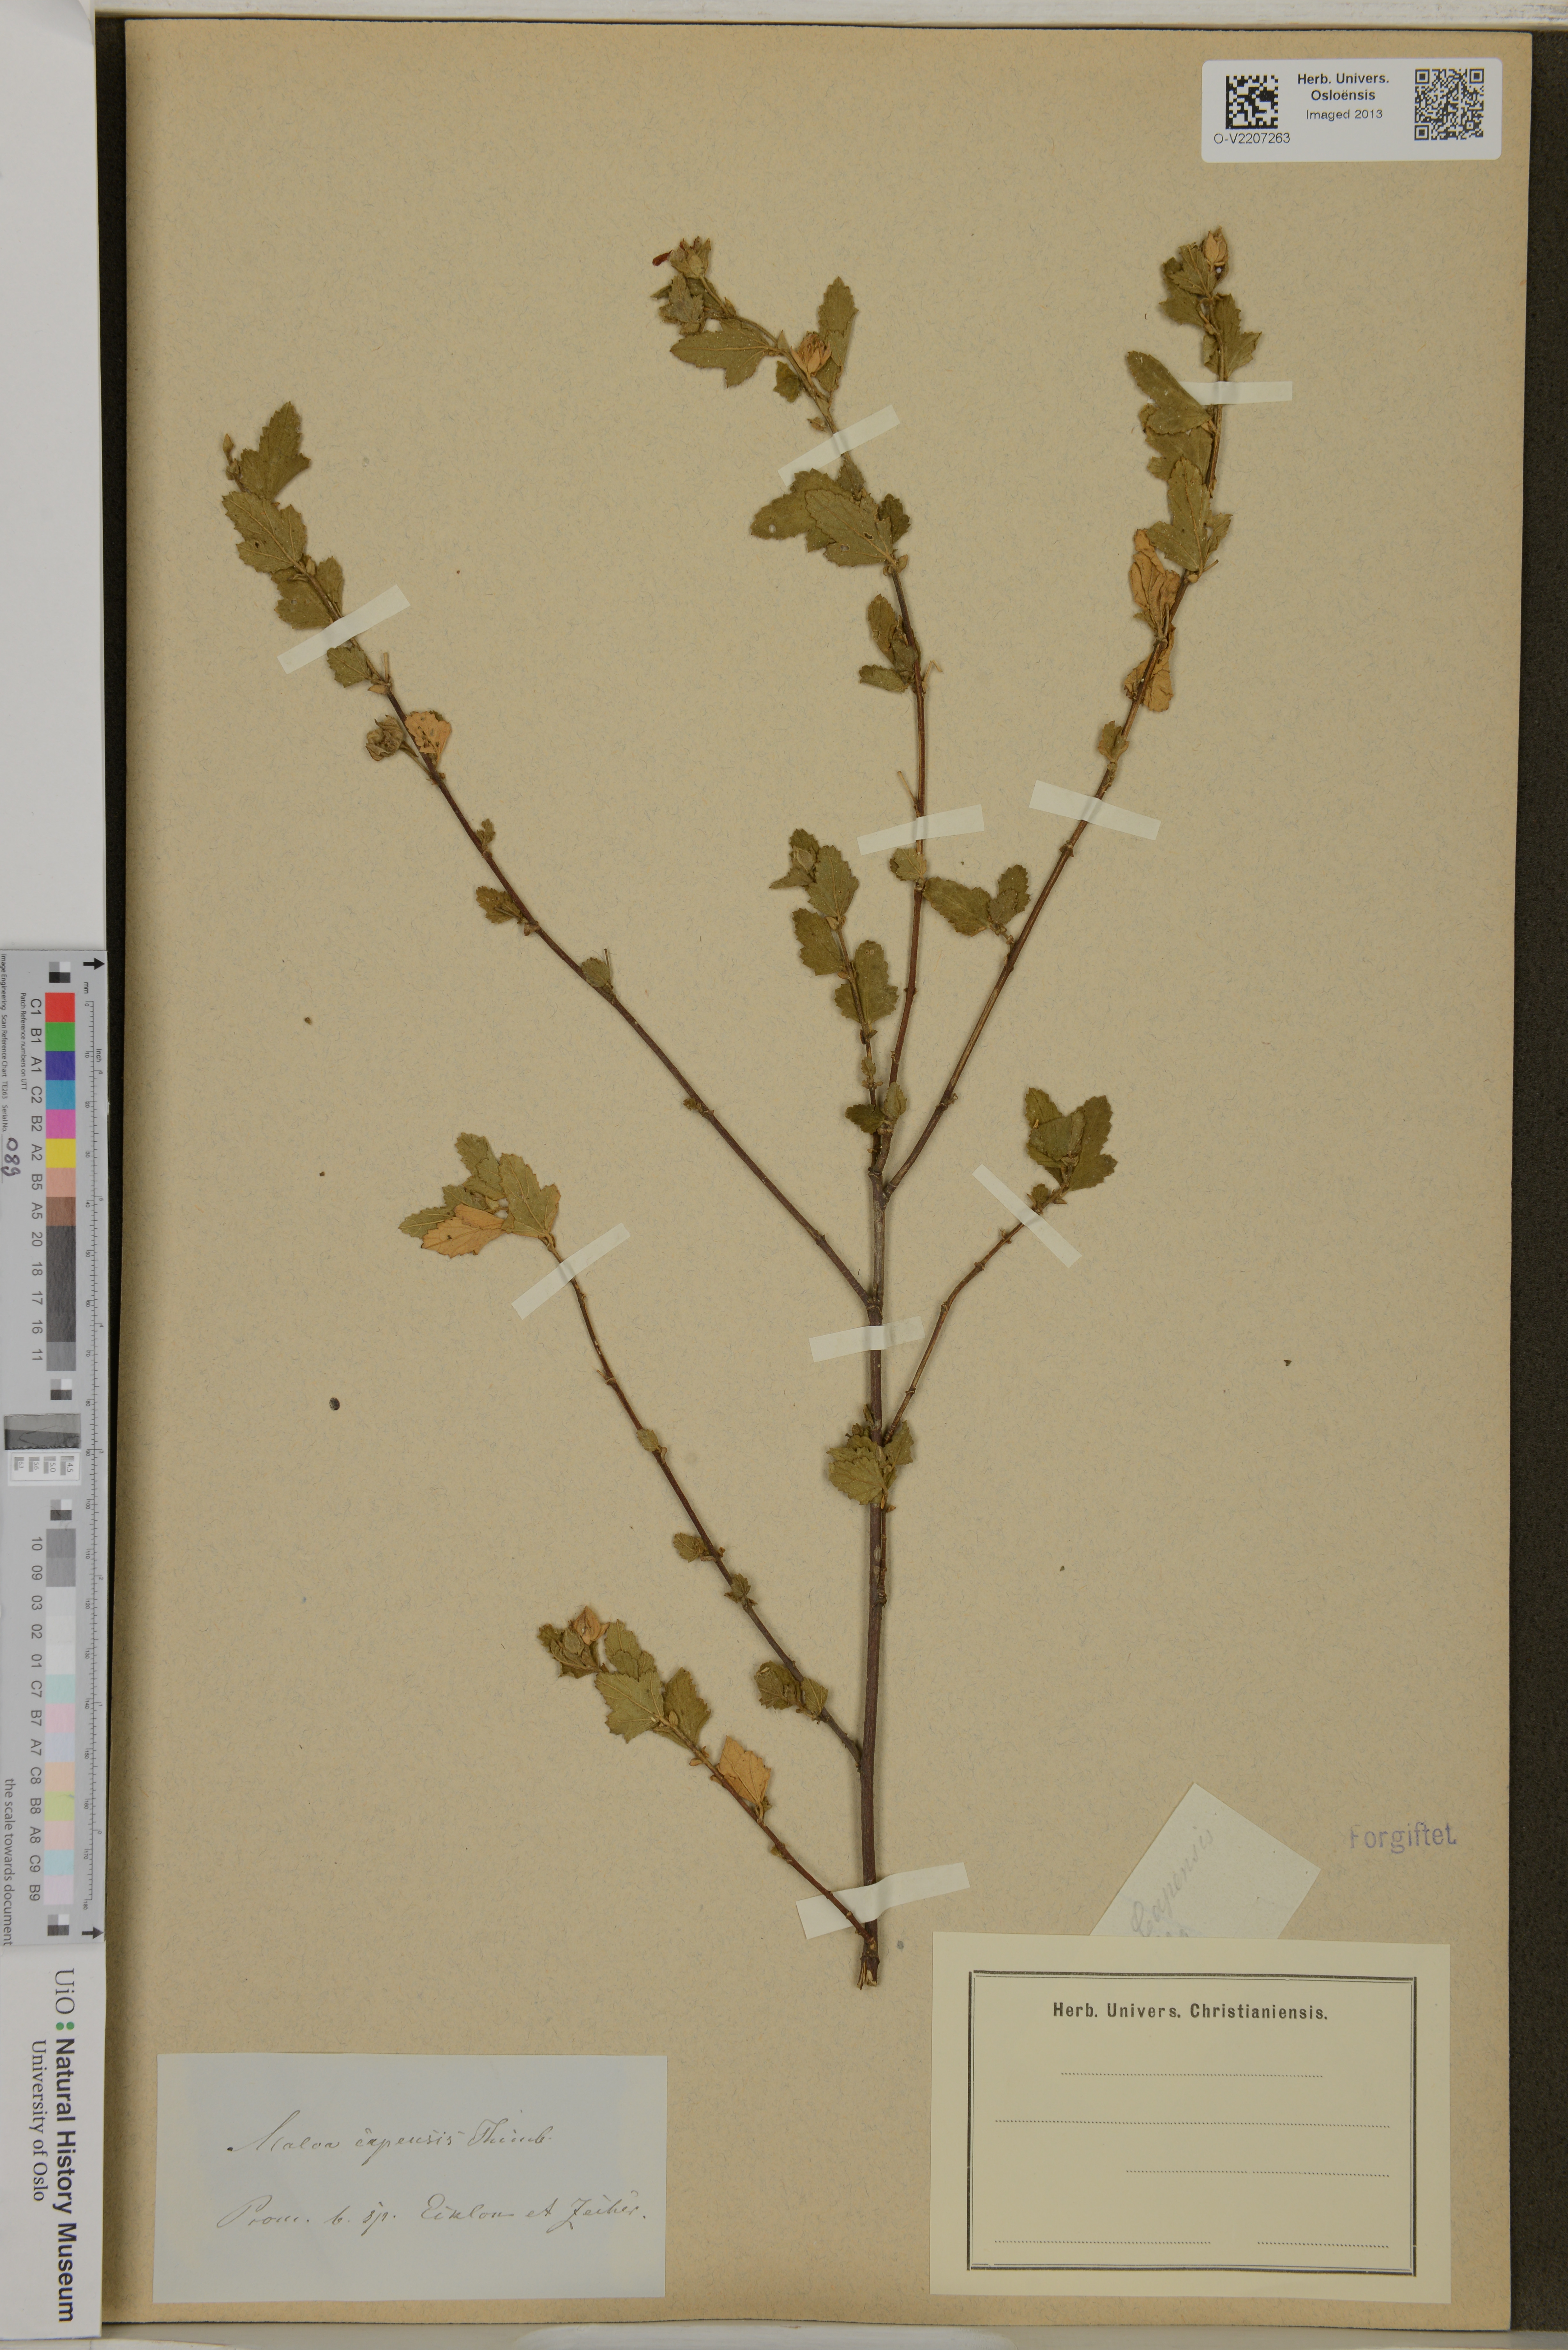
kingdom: Plantae
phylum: Tracheophyta
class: Magnoliopsida
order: Malvales
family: Malvaceae
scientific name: Malvaceae
